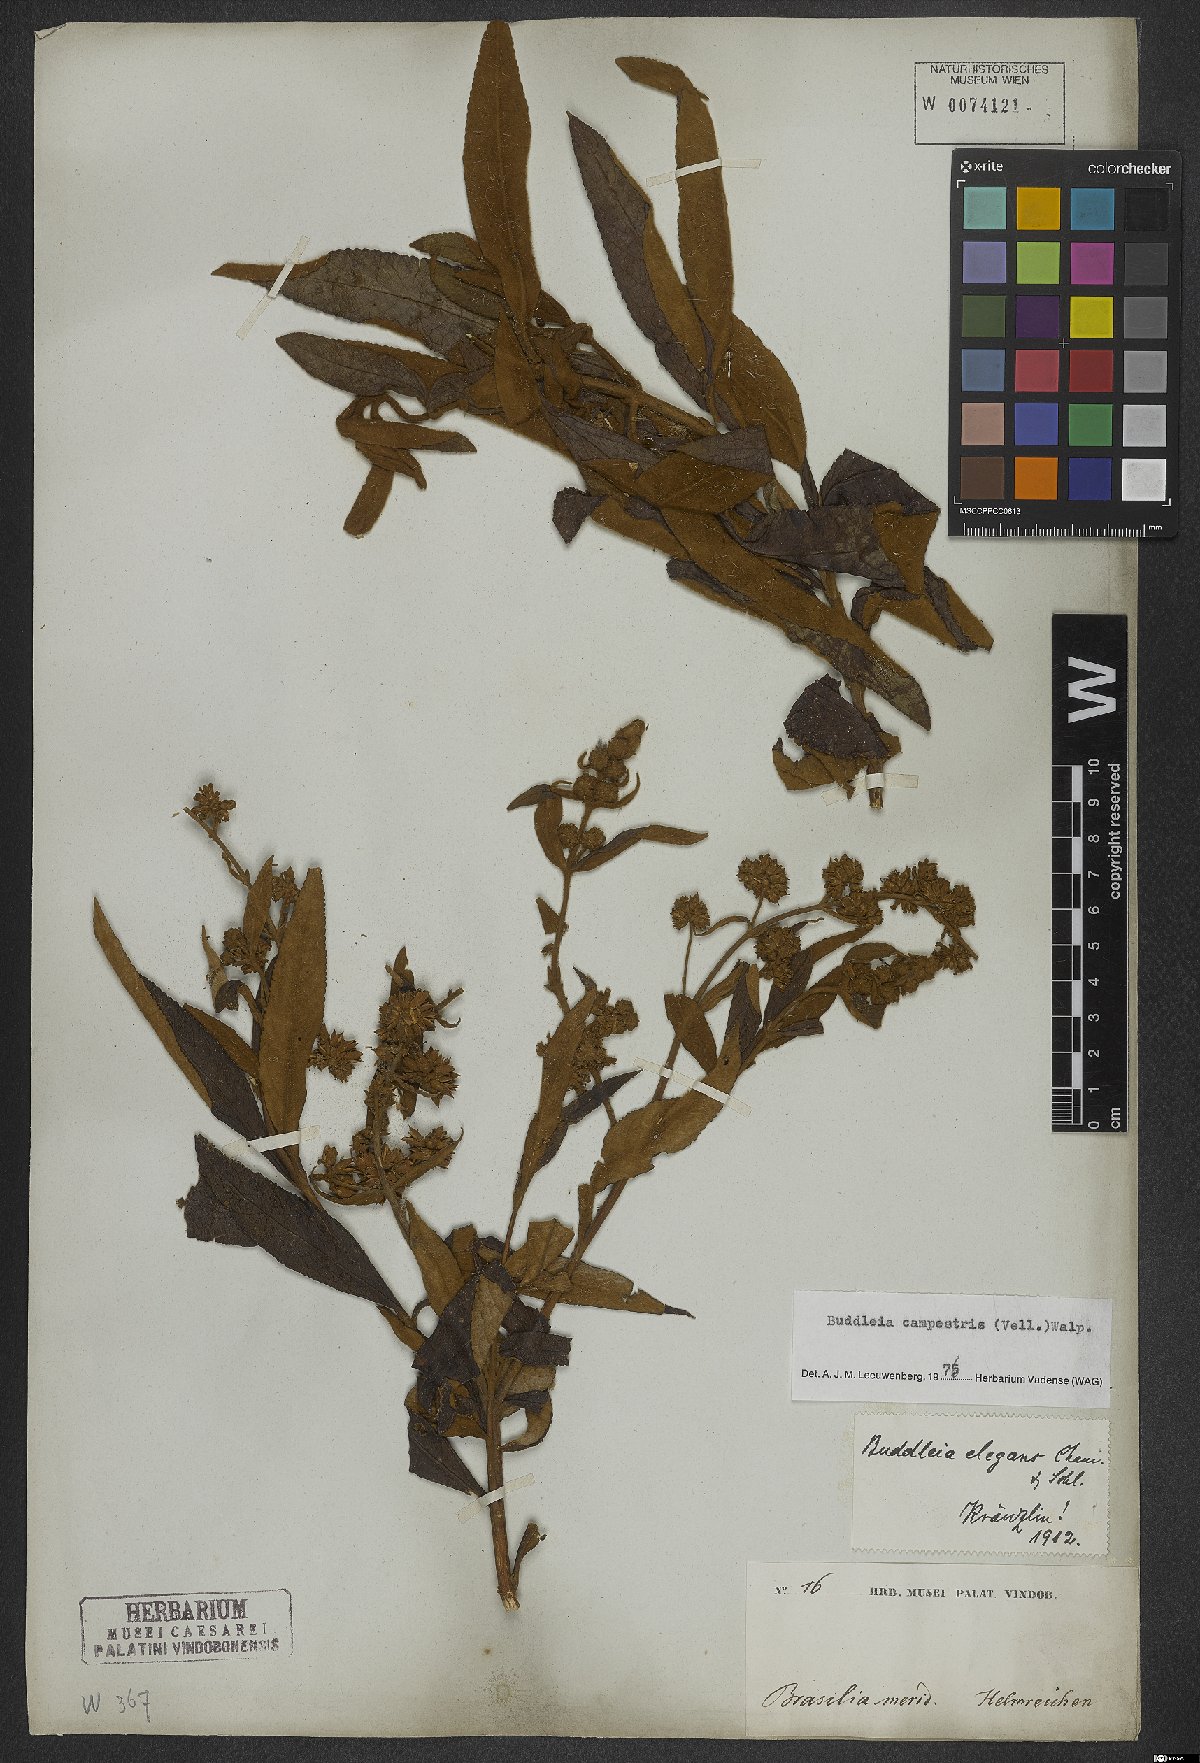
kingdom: Plantae
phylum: Tracheophyta
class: Magnoliopsida
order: Lamiales
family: Scrophulariaceae
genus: Buddleja
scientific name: Buddleja elegans
